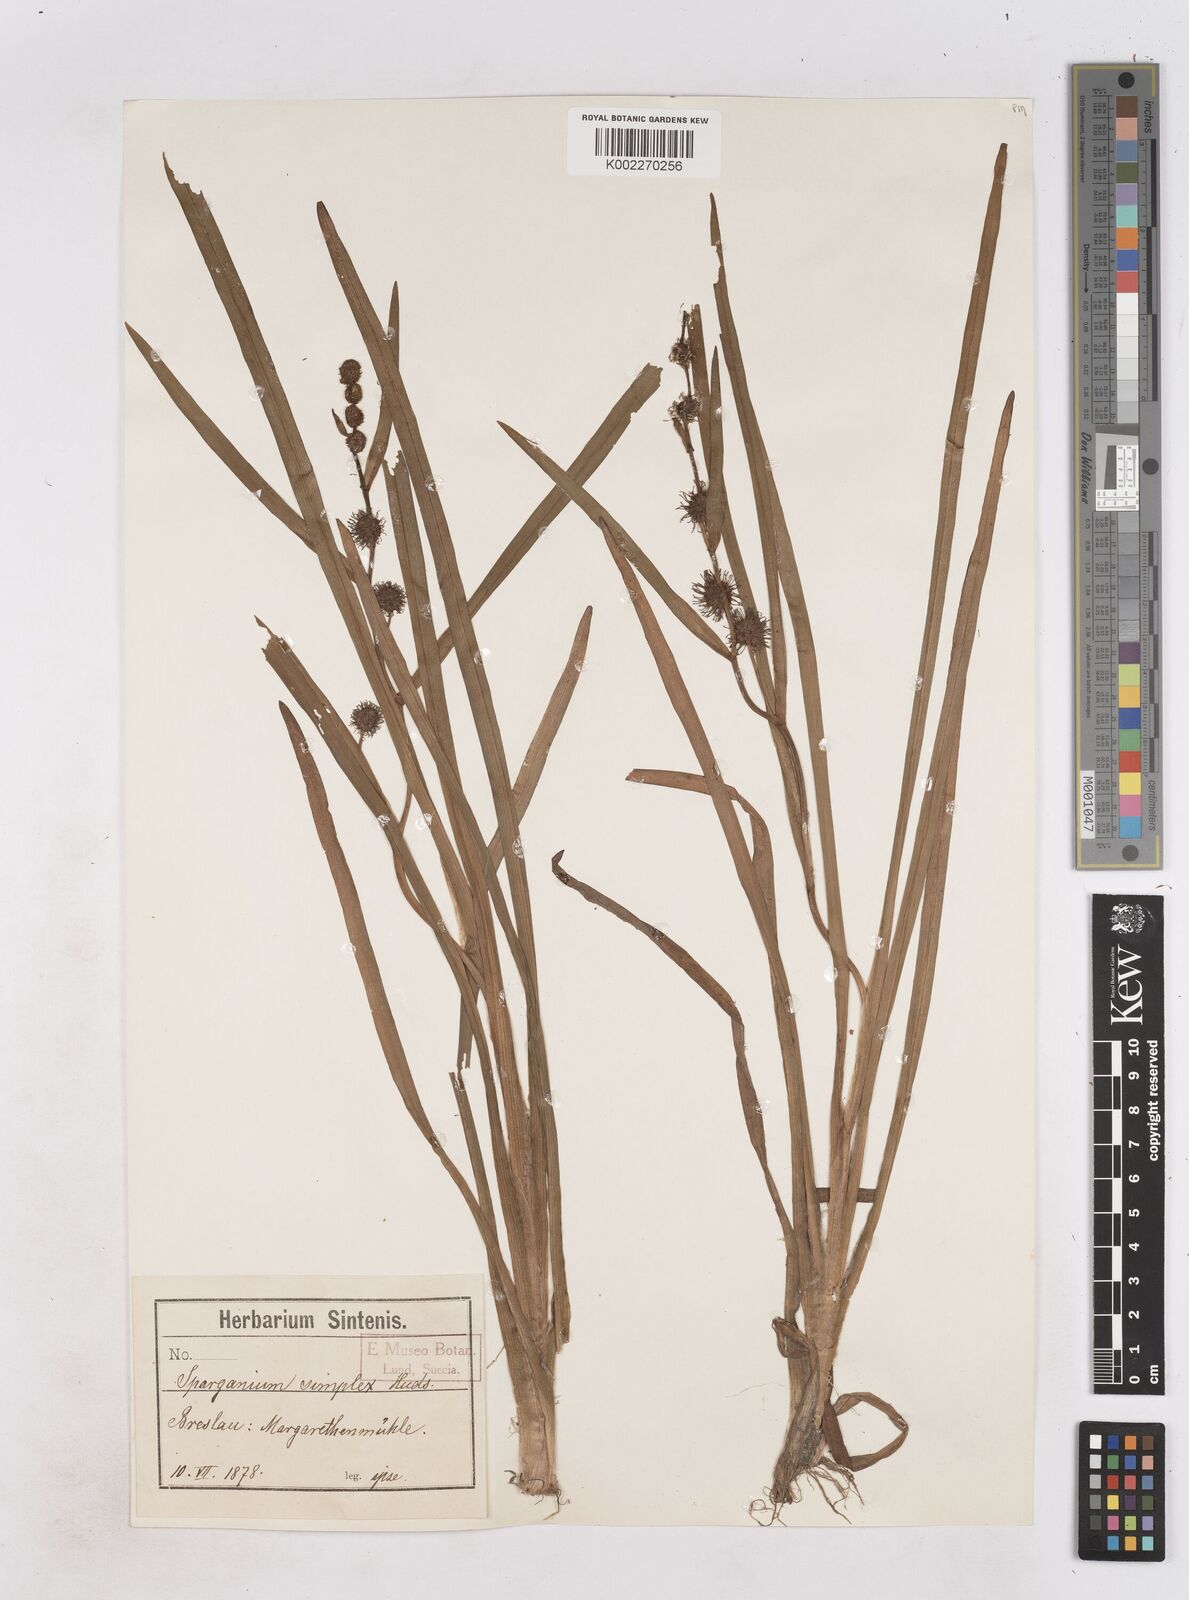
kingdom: Plantae
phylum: Tracheophyta
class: Liliopsida
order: Poales
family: Typhaceae
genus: Sparganium
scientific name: Sparganium emersum
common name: Unbranched bur-reed
